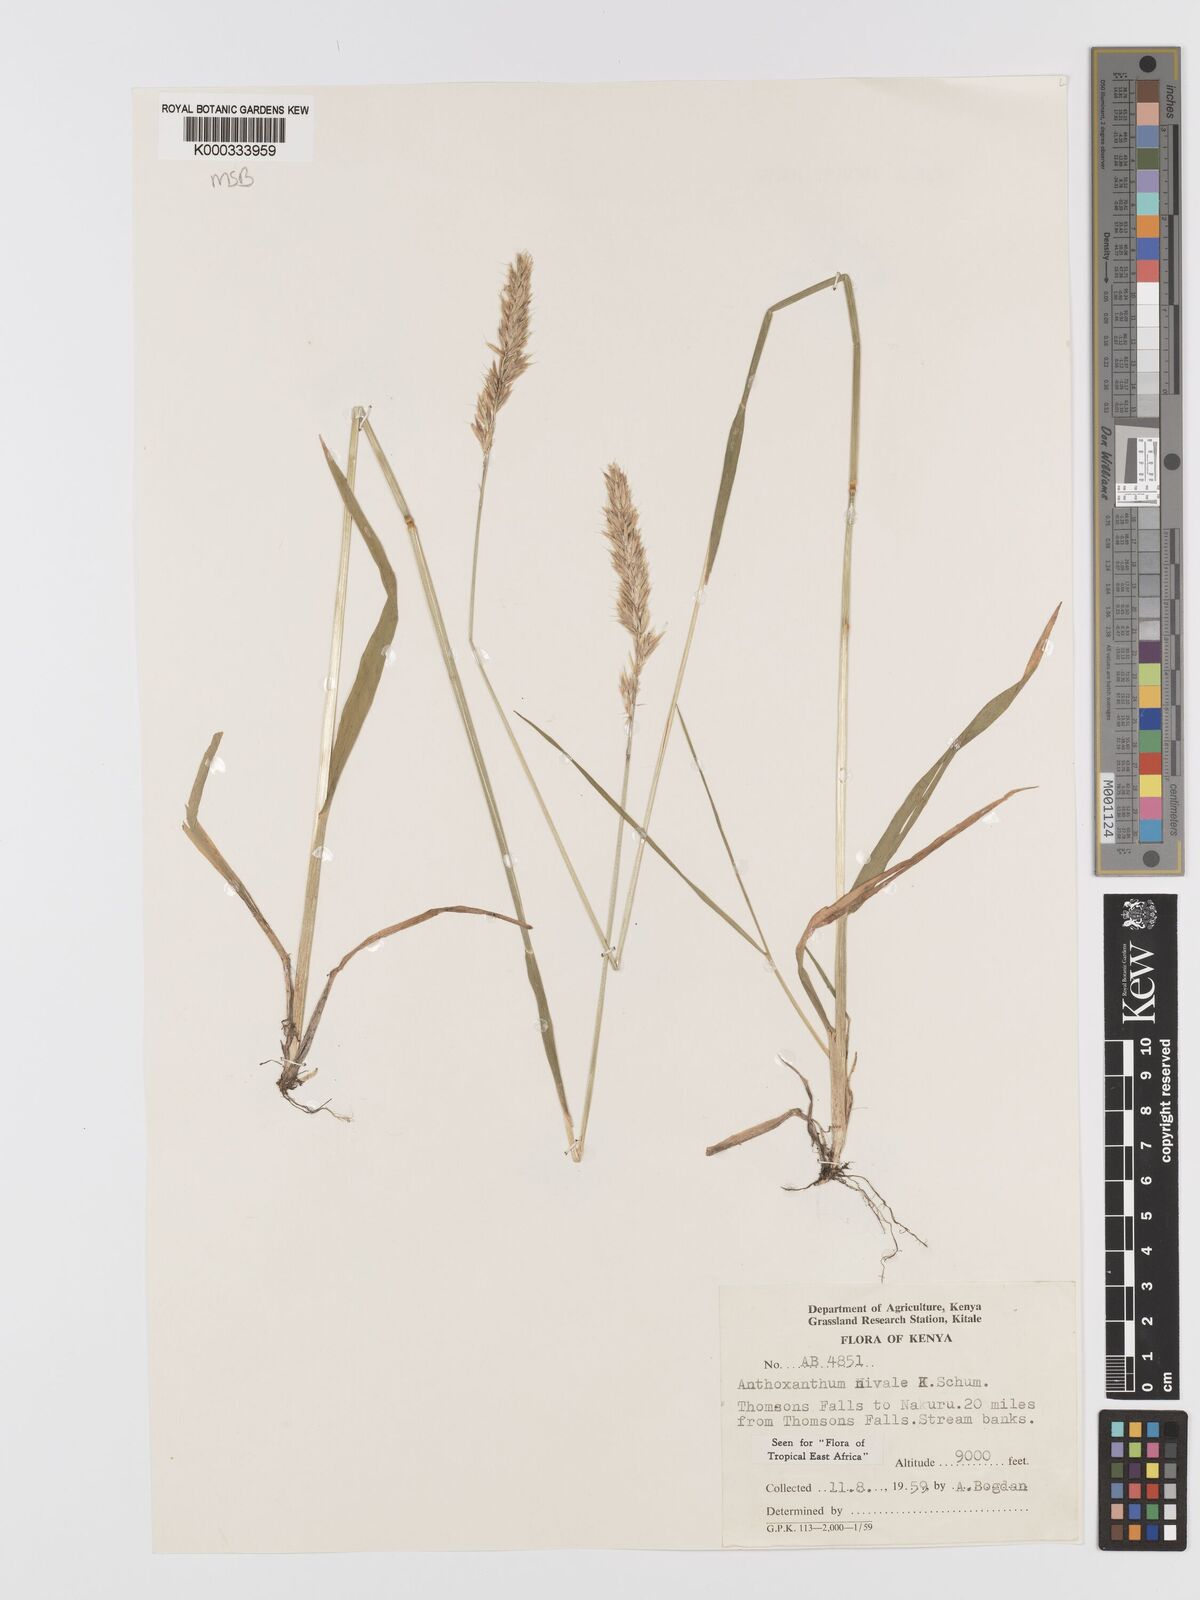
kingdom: Plantae
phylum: Tracheophyta
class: Liliopsida
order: Poales
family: Poaceae
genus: Anthoxanthum
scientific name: Anthoxanthum
